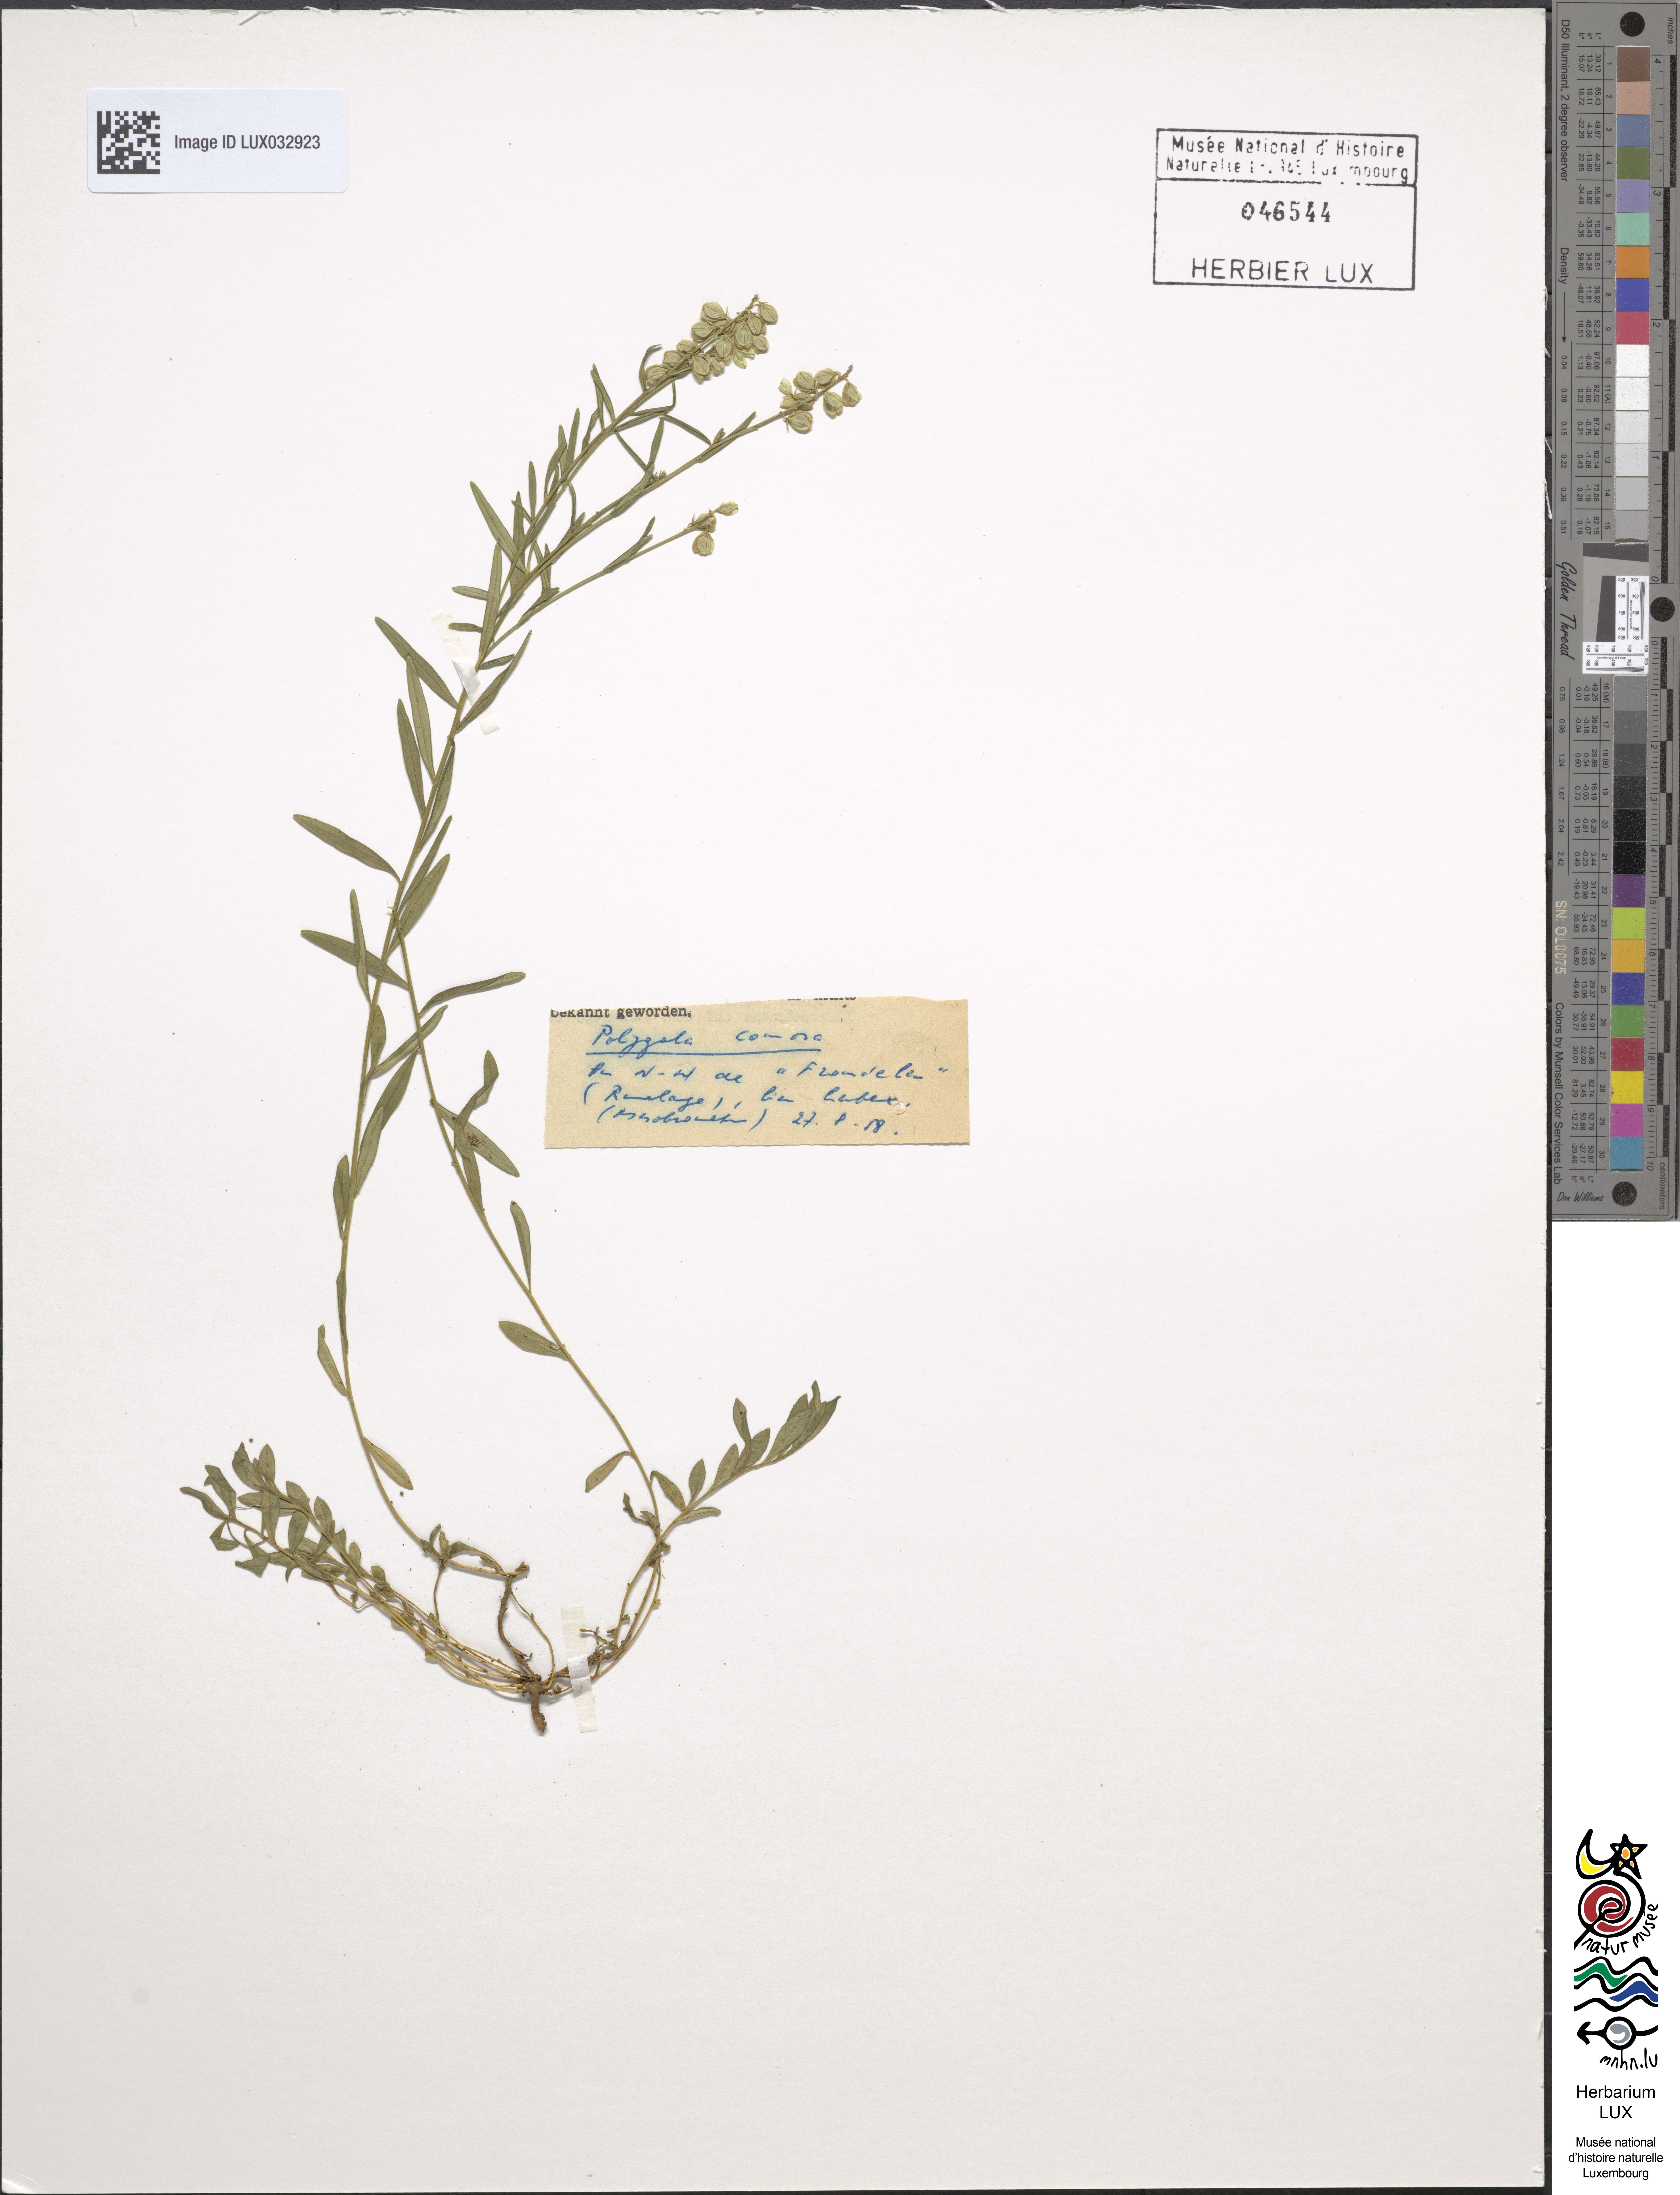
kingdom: Plantae
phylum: Tracheophyta
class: Magnoliopsida
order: Fabales
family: Polygalaceae
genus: Polygala
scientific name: Polygala comosa
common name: Tufted milkwort
